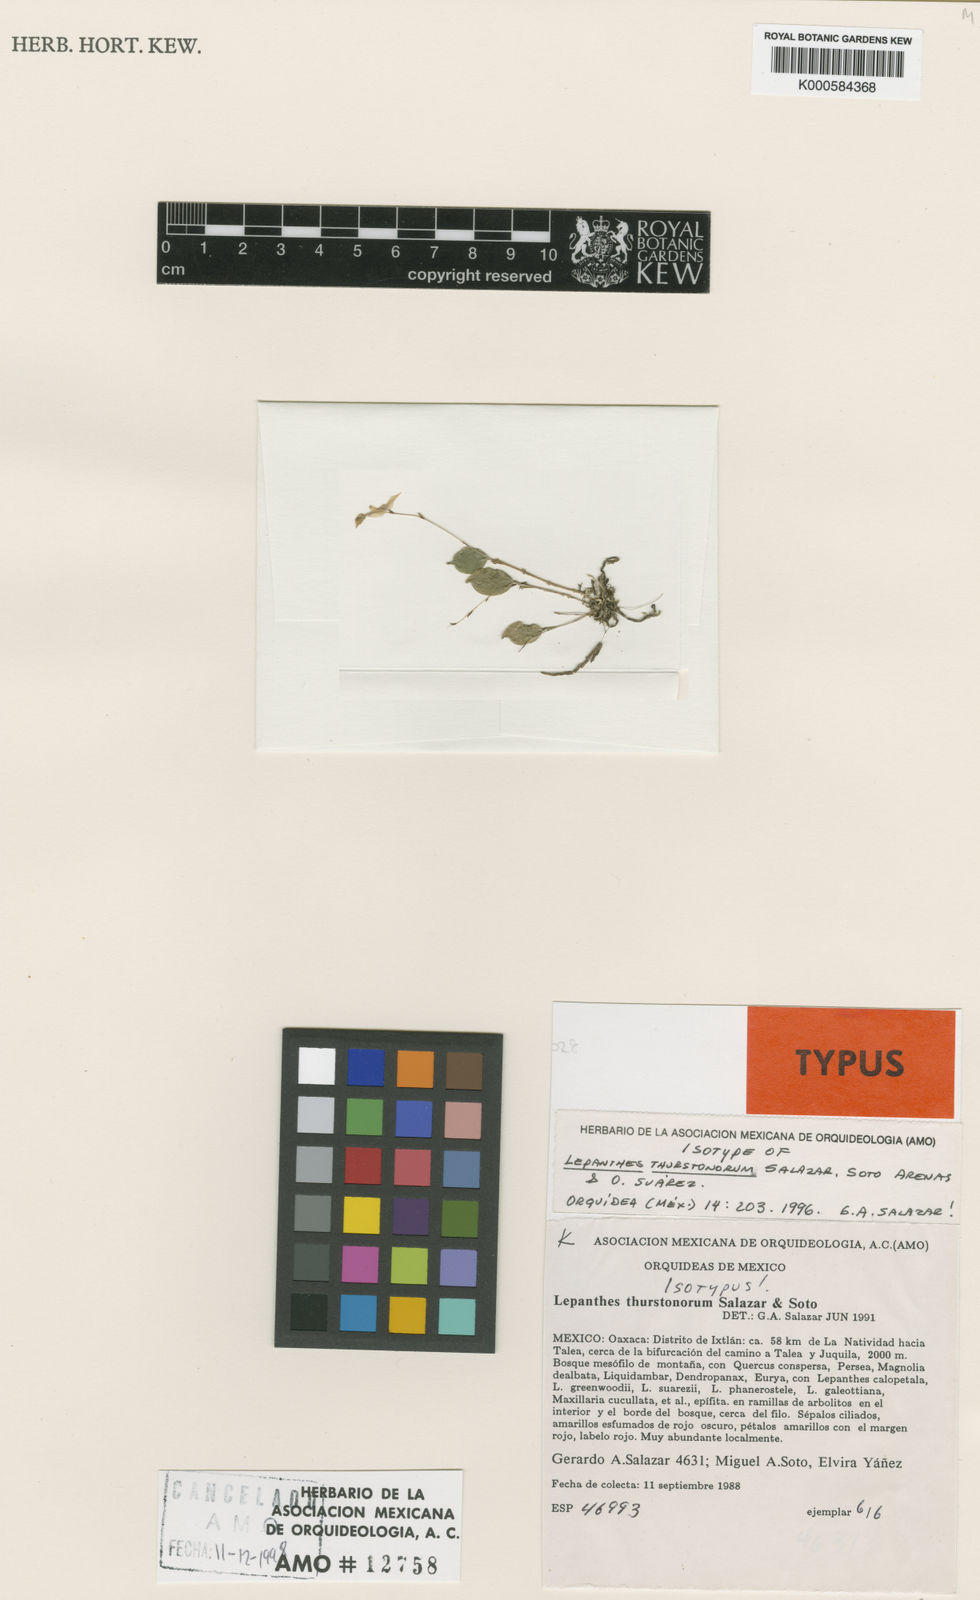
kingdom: Plantae
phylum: Tracheophyta
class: Liliopsida
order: Asparagales
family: Orchidaceae
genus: Lepanthes
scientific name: Lepanthes
